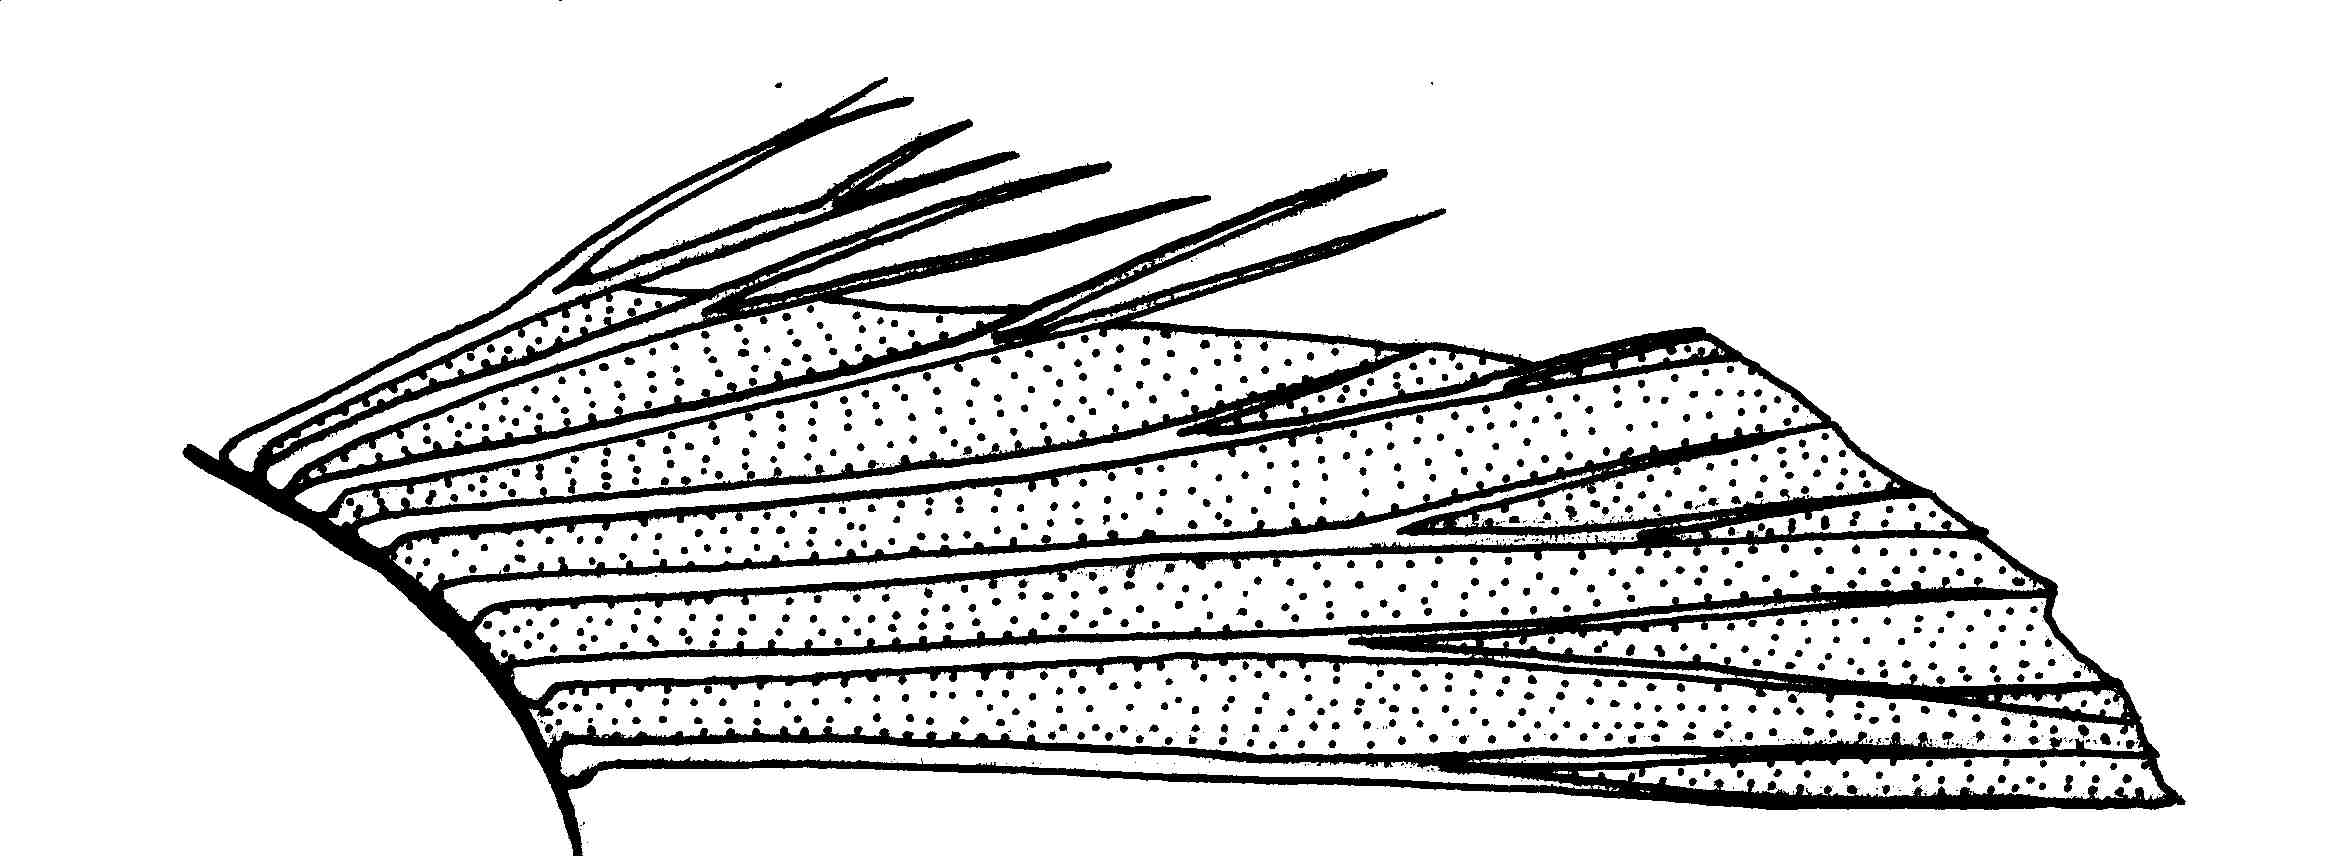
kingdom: Animalia
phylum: Chordata
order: Perciformes
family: Gobiidae
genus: Caffrogobius
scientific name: Caffrogobius saldanha
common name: Commafin goby
